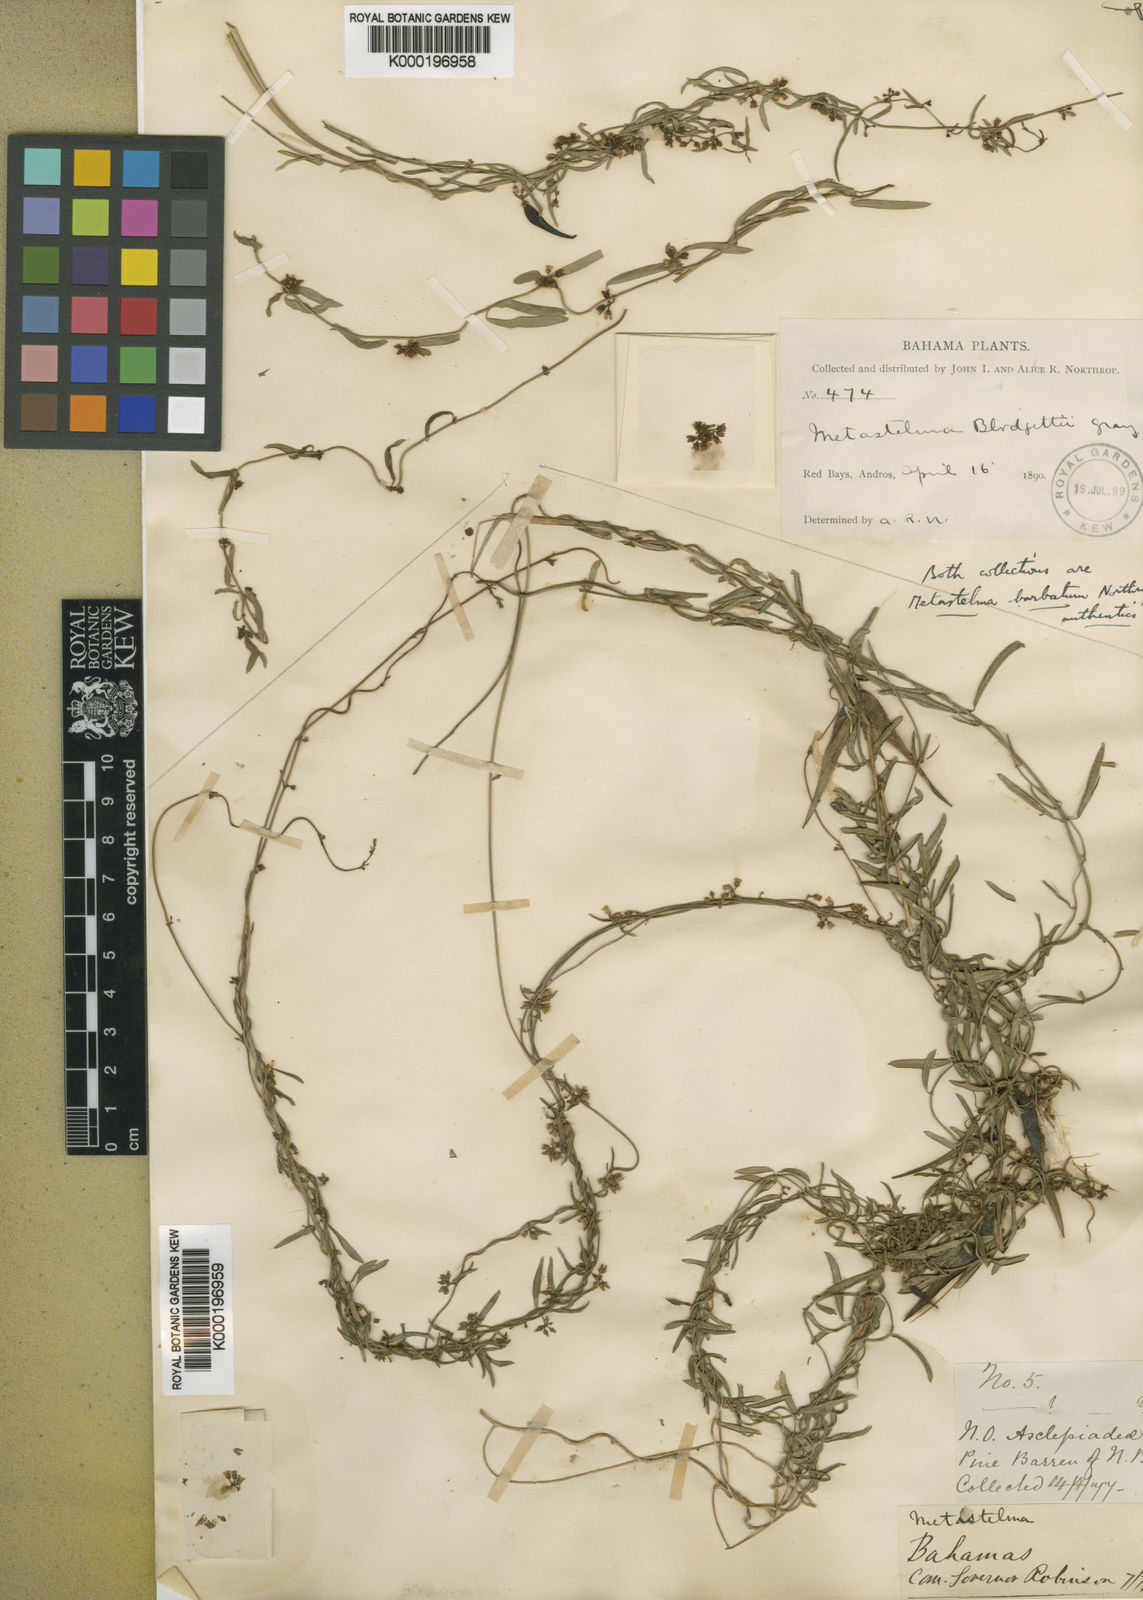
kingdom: Plantae
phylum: Tracheophyta
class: Magnoliopsida
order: Gentianales
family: Apocynaceae
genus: Metastelma
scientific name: Metastelma blodgettii
